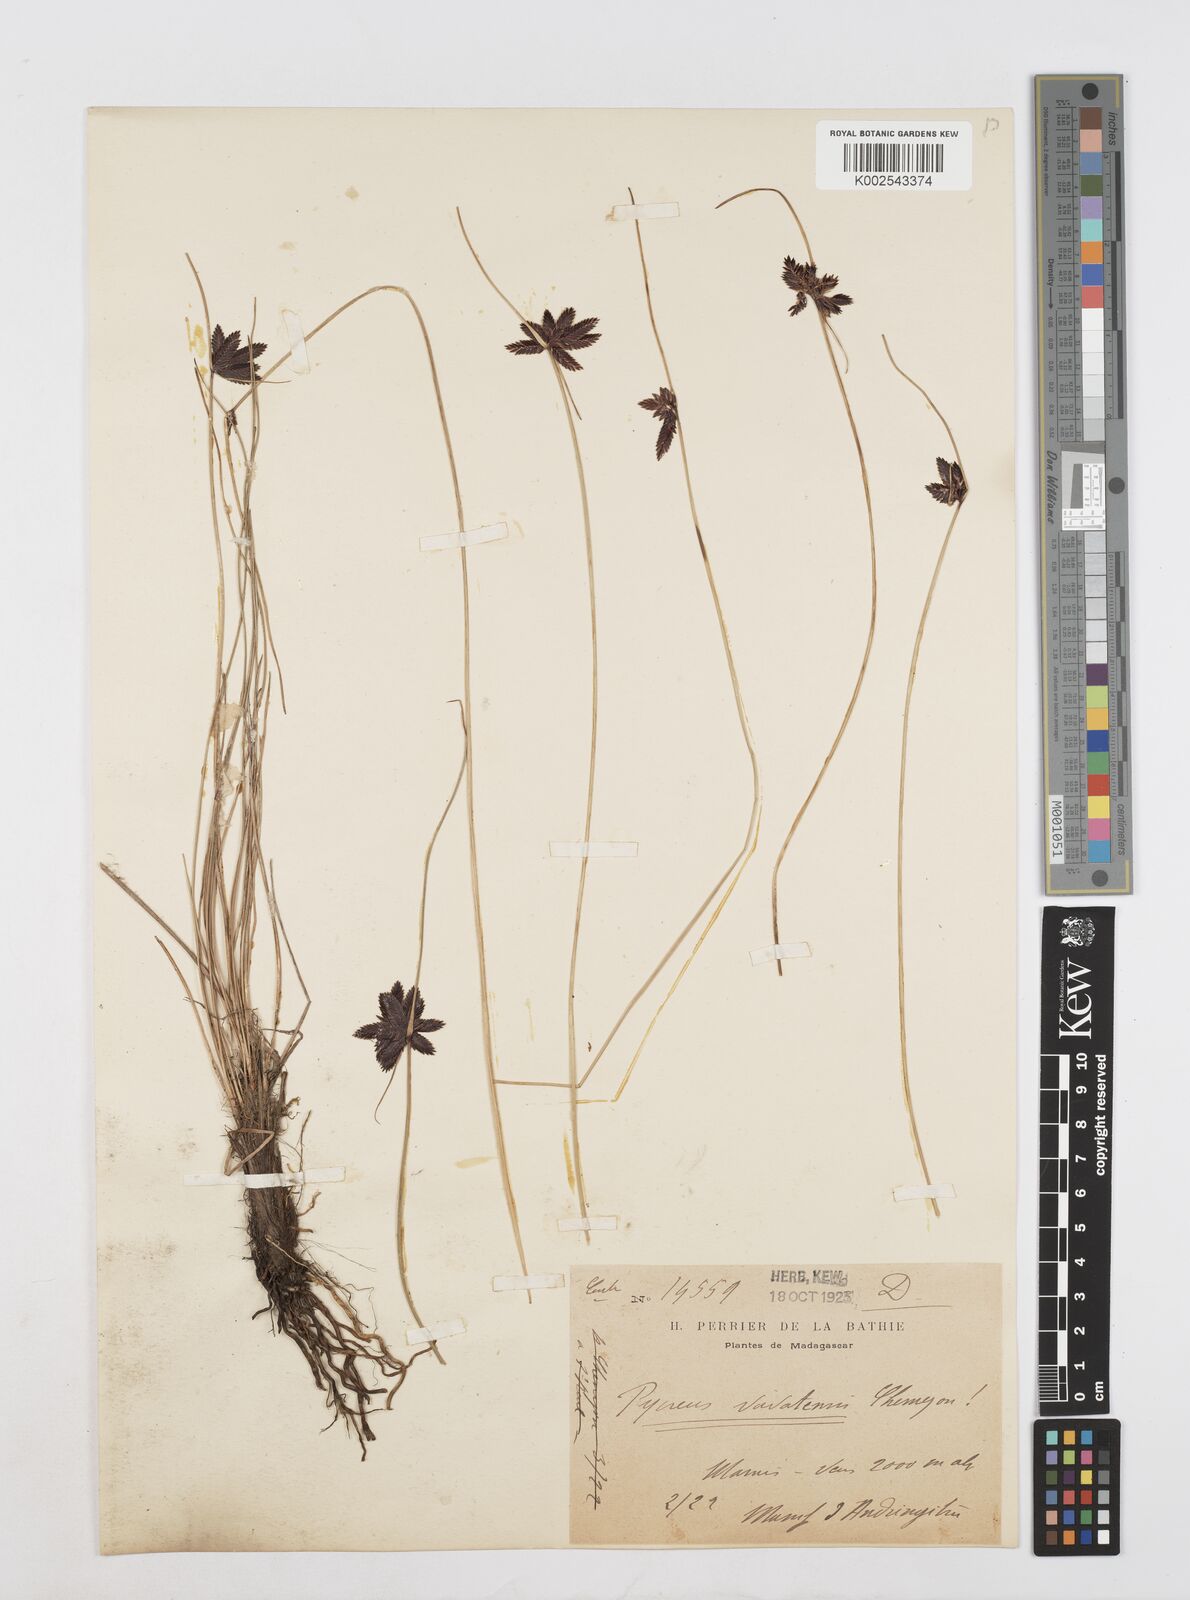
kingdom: Plantae
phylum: Tracheophyta
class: Liliopsida
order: Poales
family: Cyperaceae
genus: Cyperus
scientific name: Cyperus nigricans
